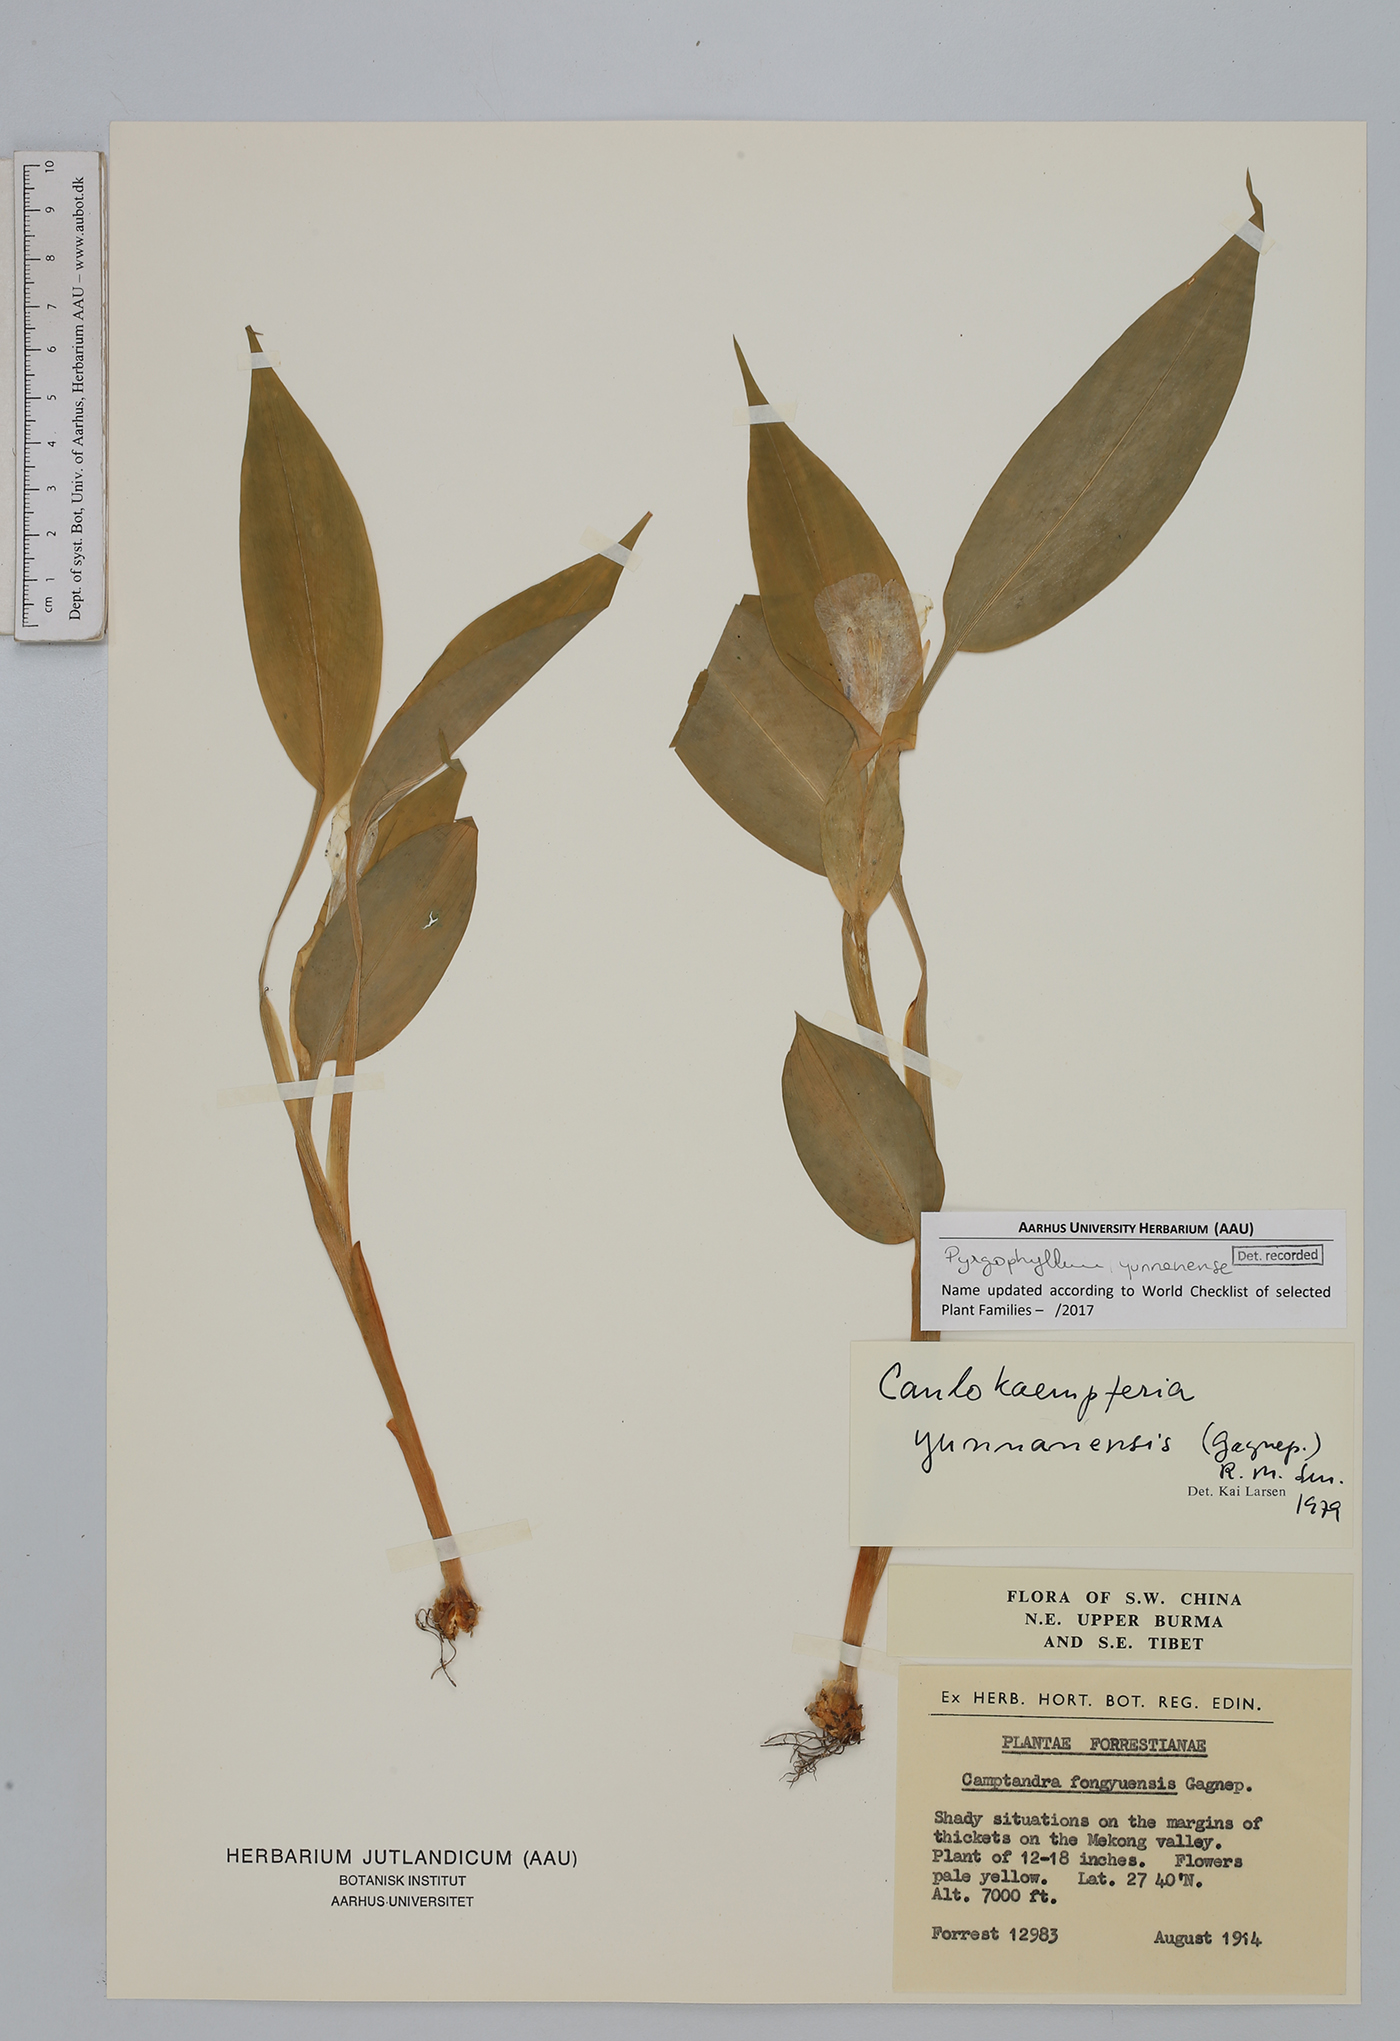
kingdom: Plantae
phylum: Tracheophyta
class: Liliopsida
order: Zingiberales
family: Zingiberaceae
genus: Pyrgophyllum
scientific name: Pyrgophyllum yunnanense
